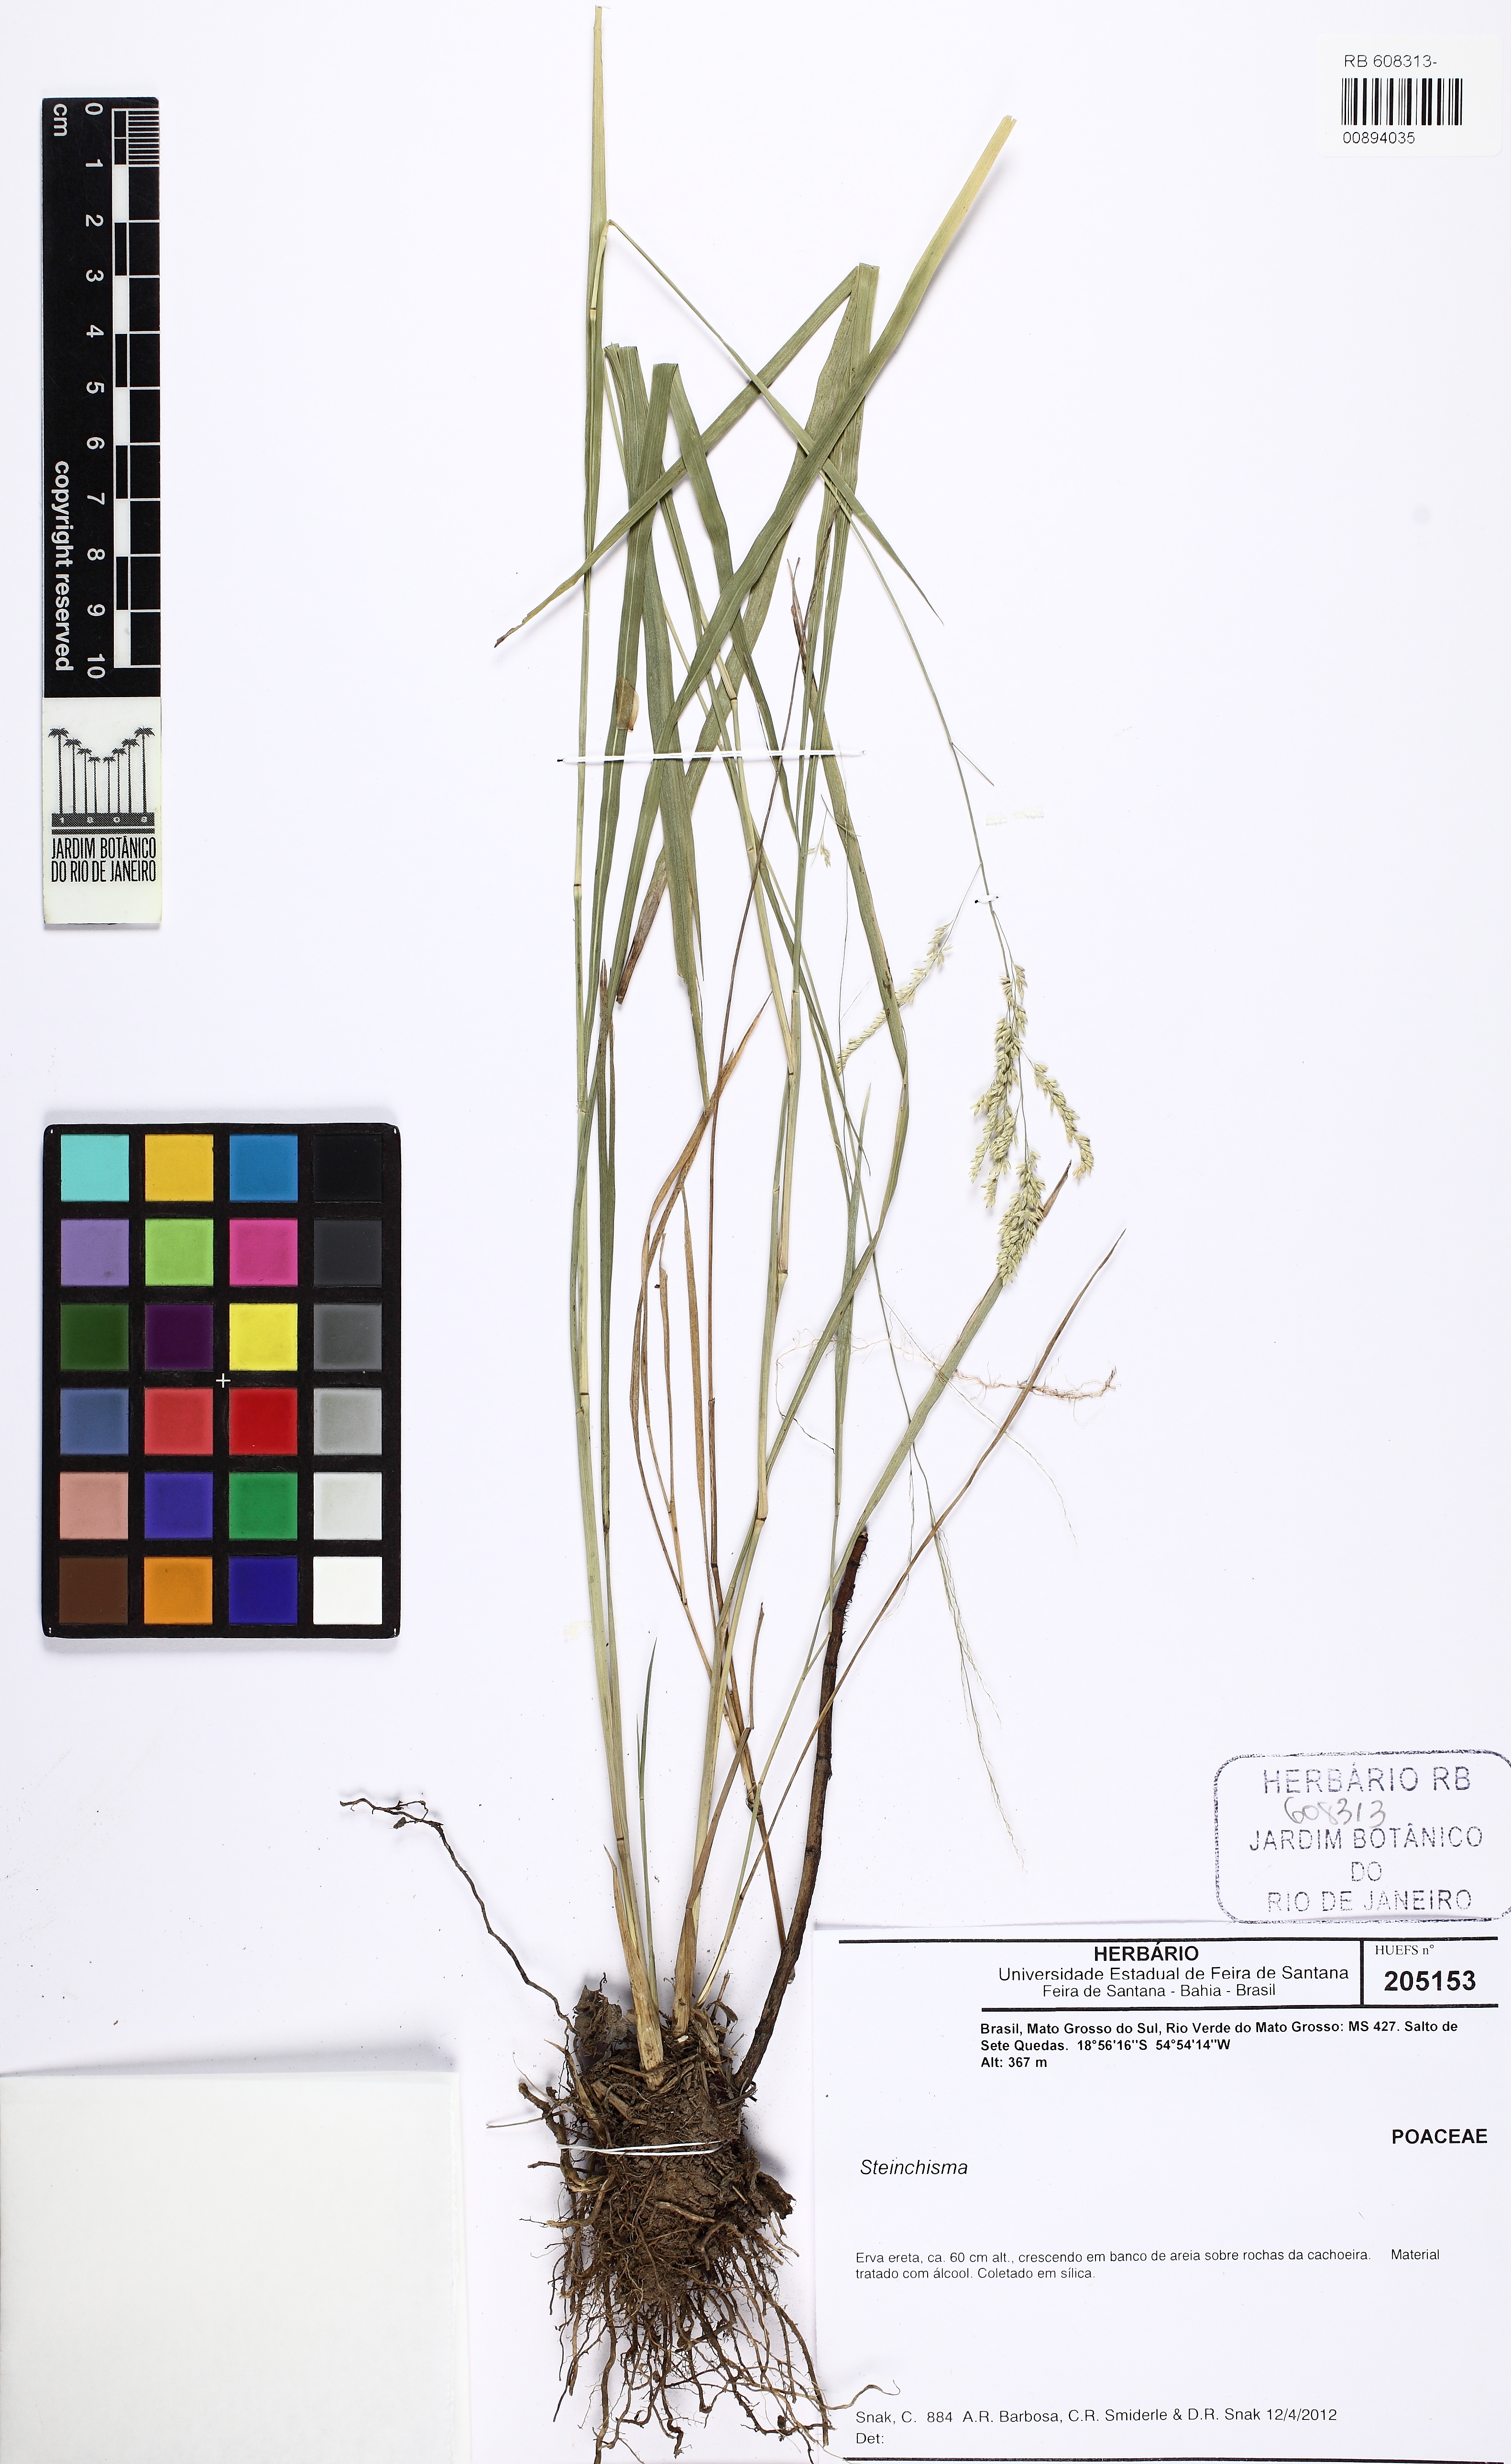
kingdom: Plantae
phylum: Tracheophyta
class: Liliopsida
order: Poales
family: Poaceae
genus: Steinchisma
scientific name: Steinchisma
